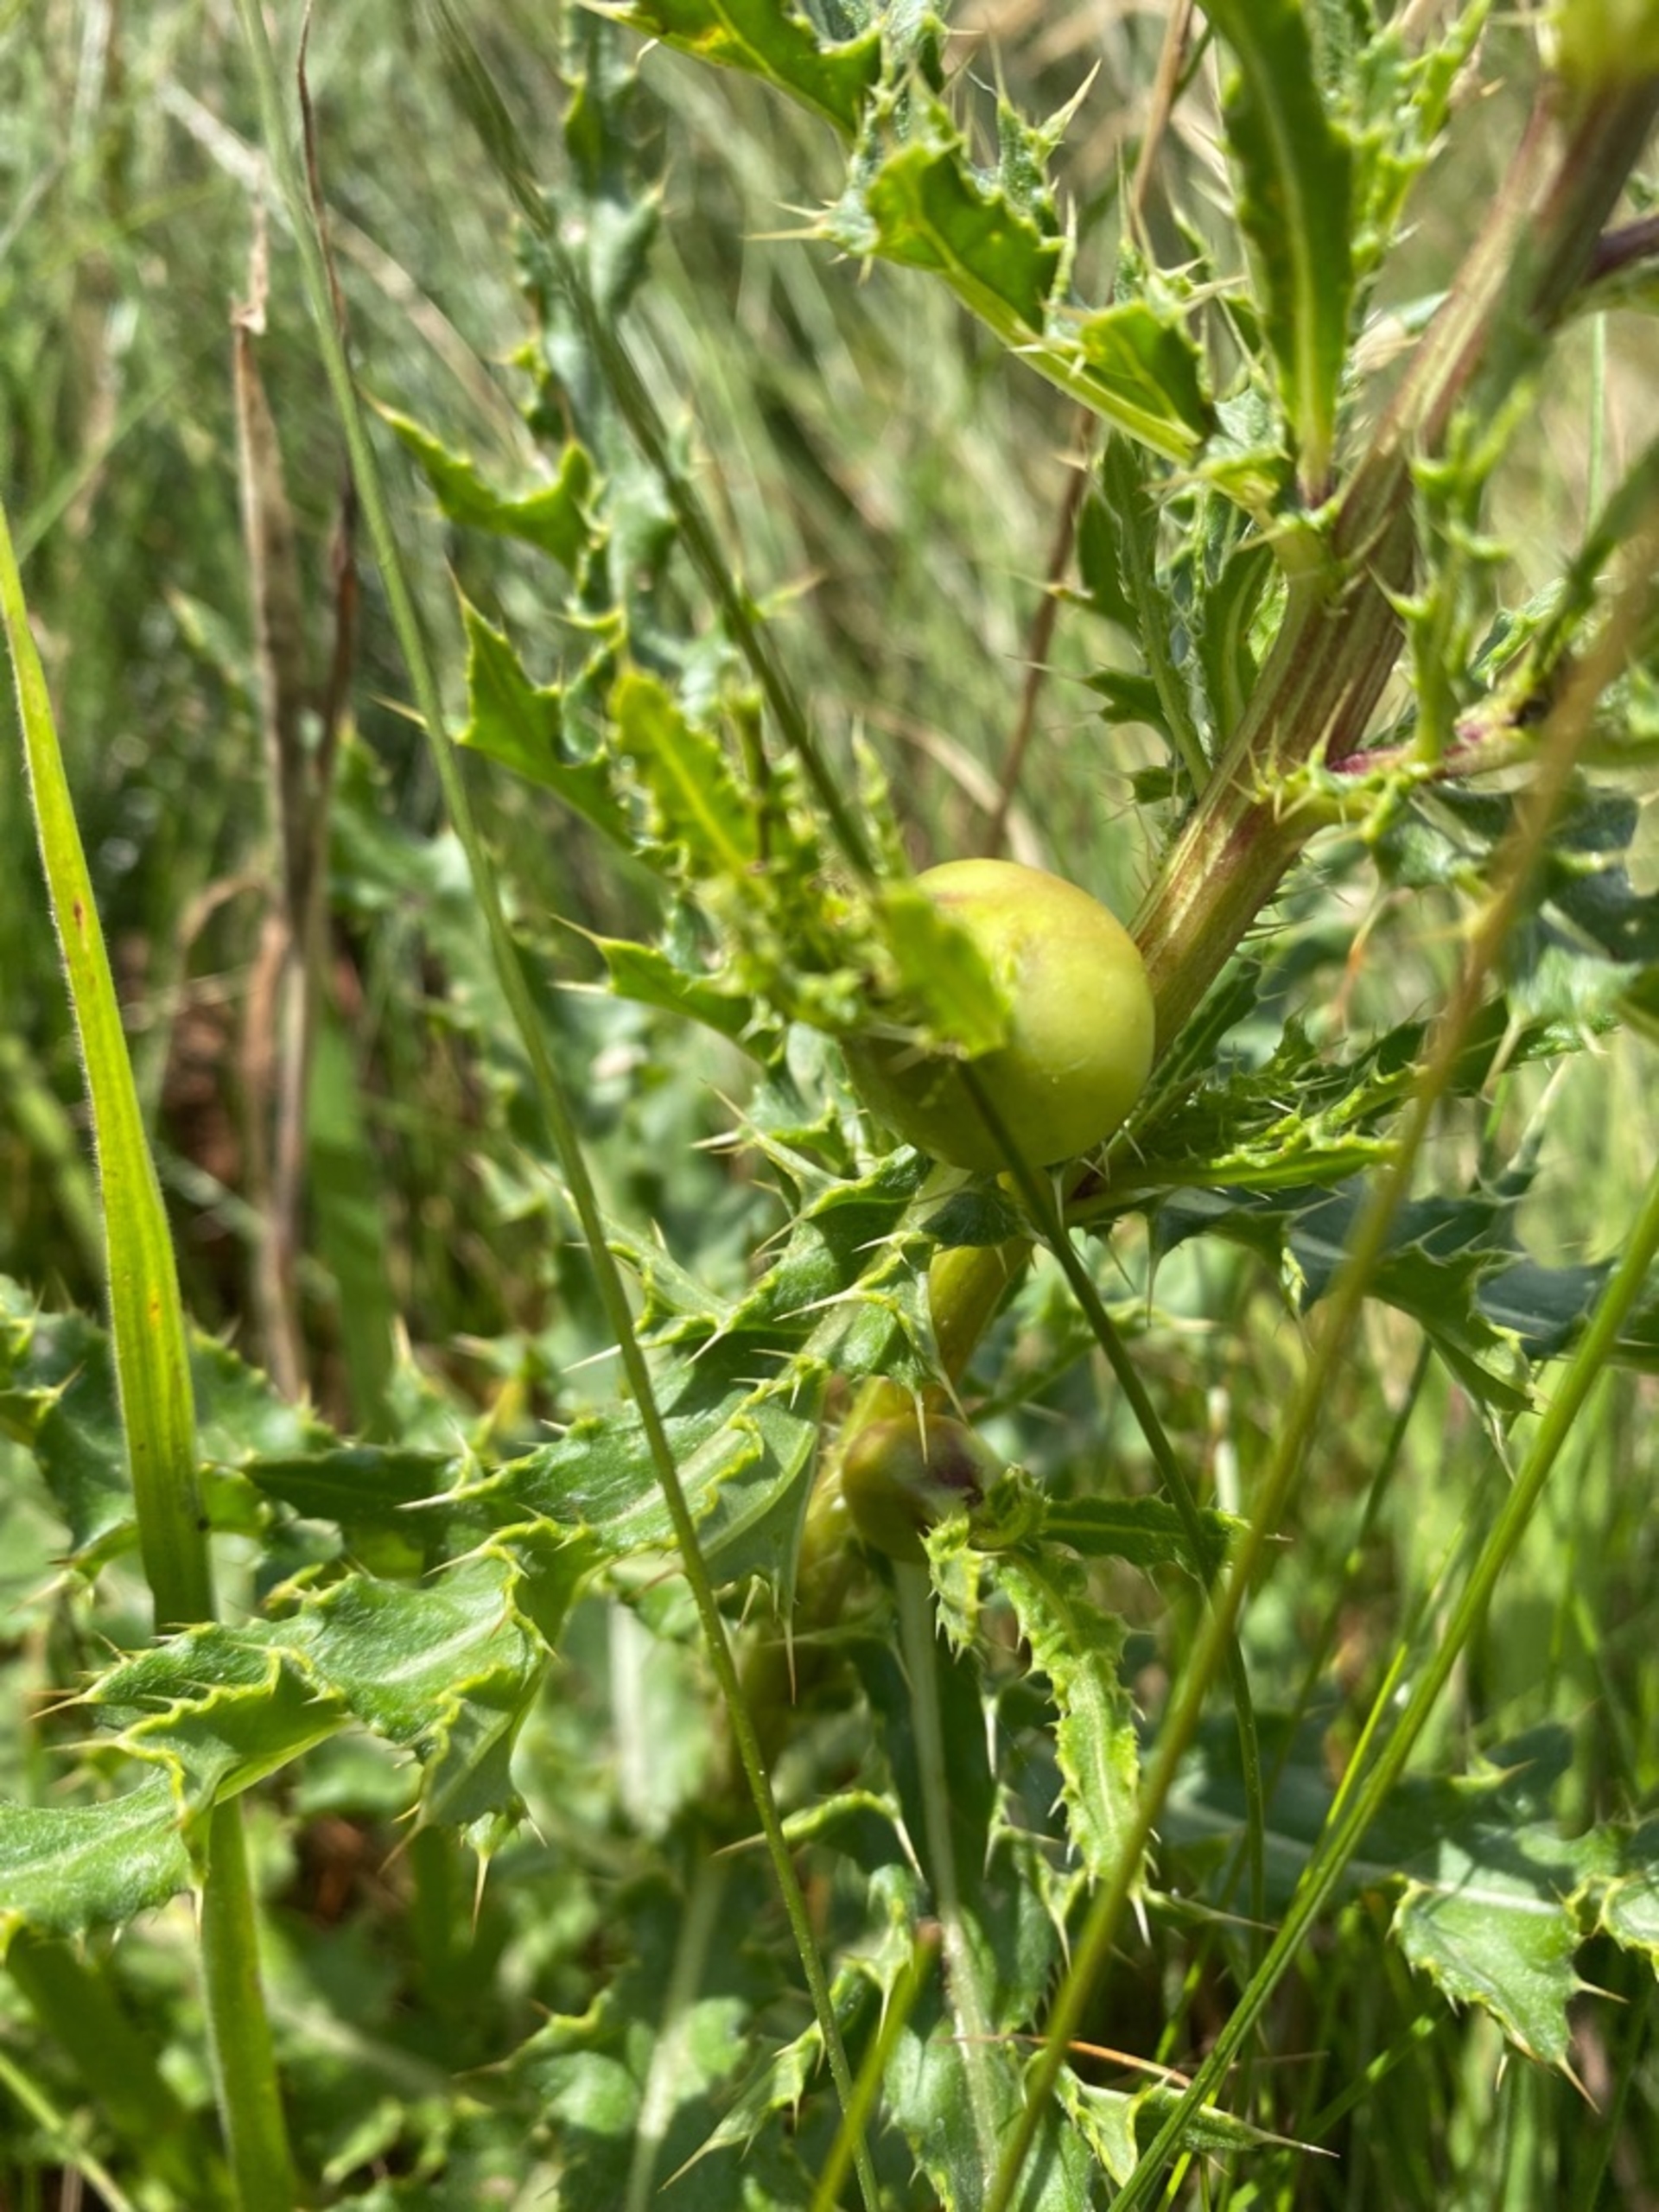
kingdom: Animalia
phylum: Arthropoda
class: Insecta
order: Diptera
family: Tephritidae
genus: Urophora
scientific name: Urophora cardui
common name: Tidselbåndflue
